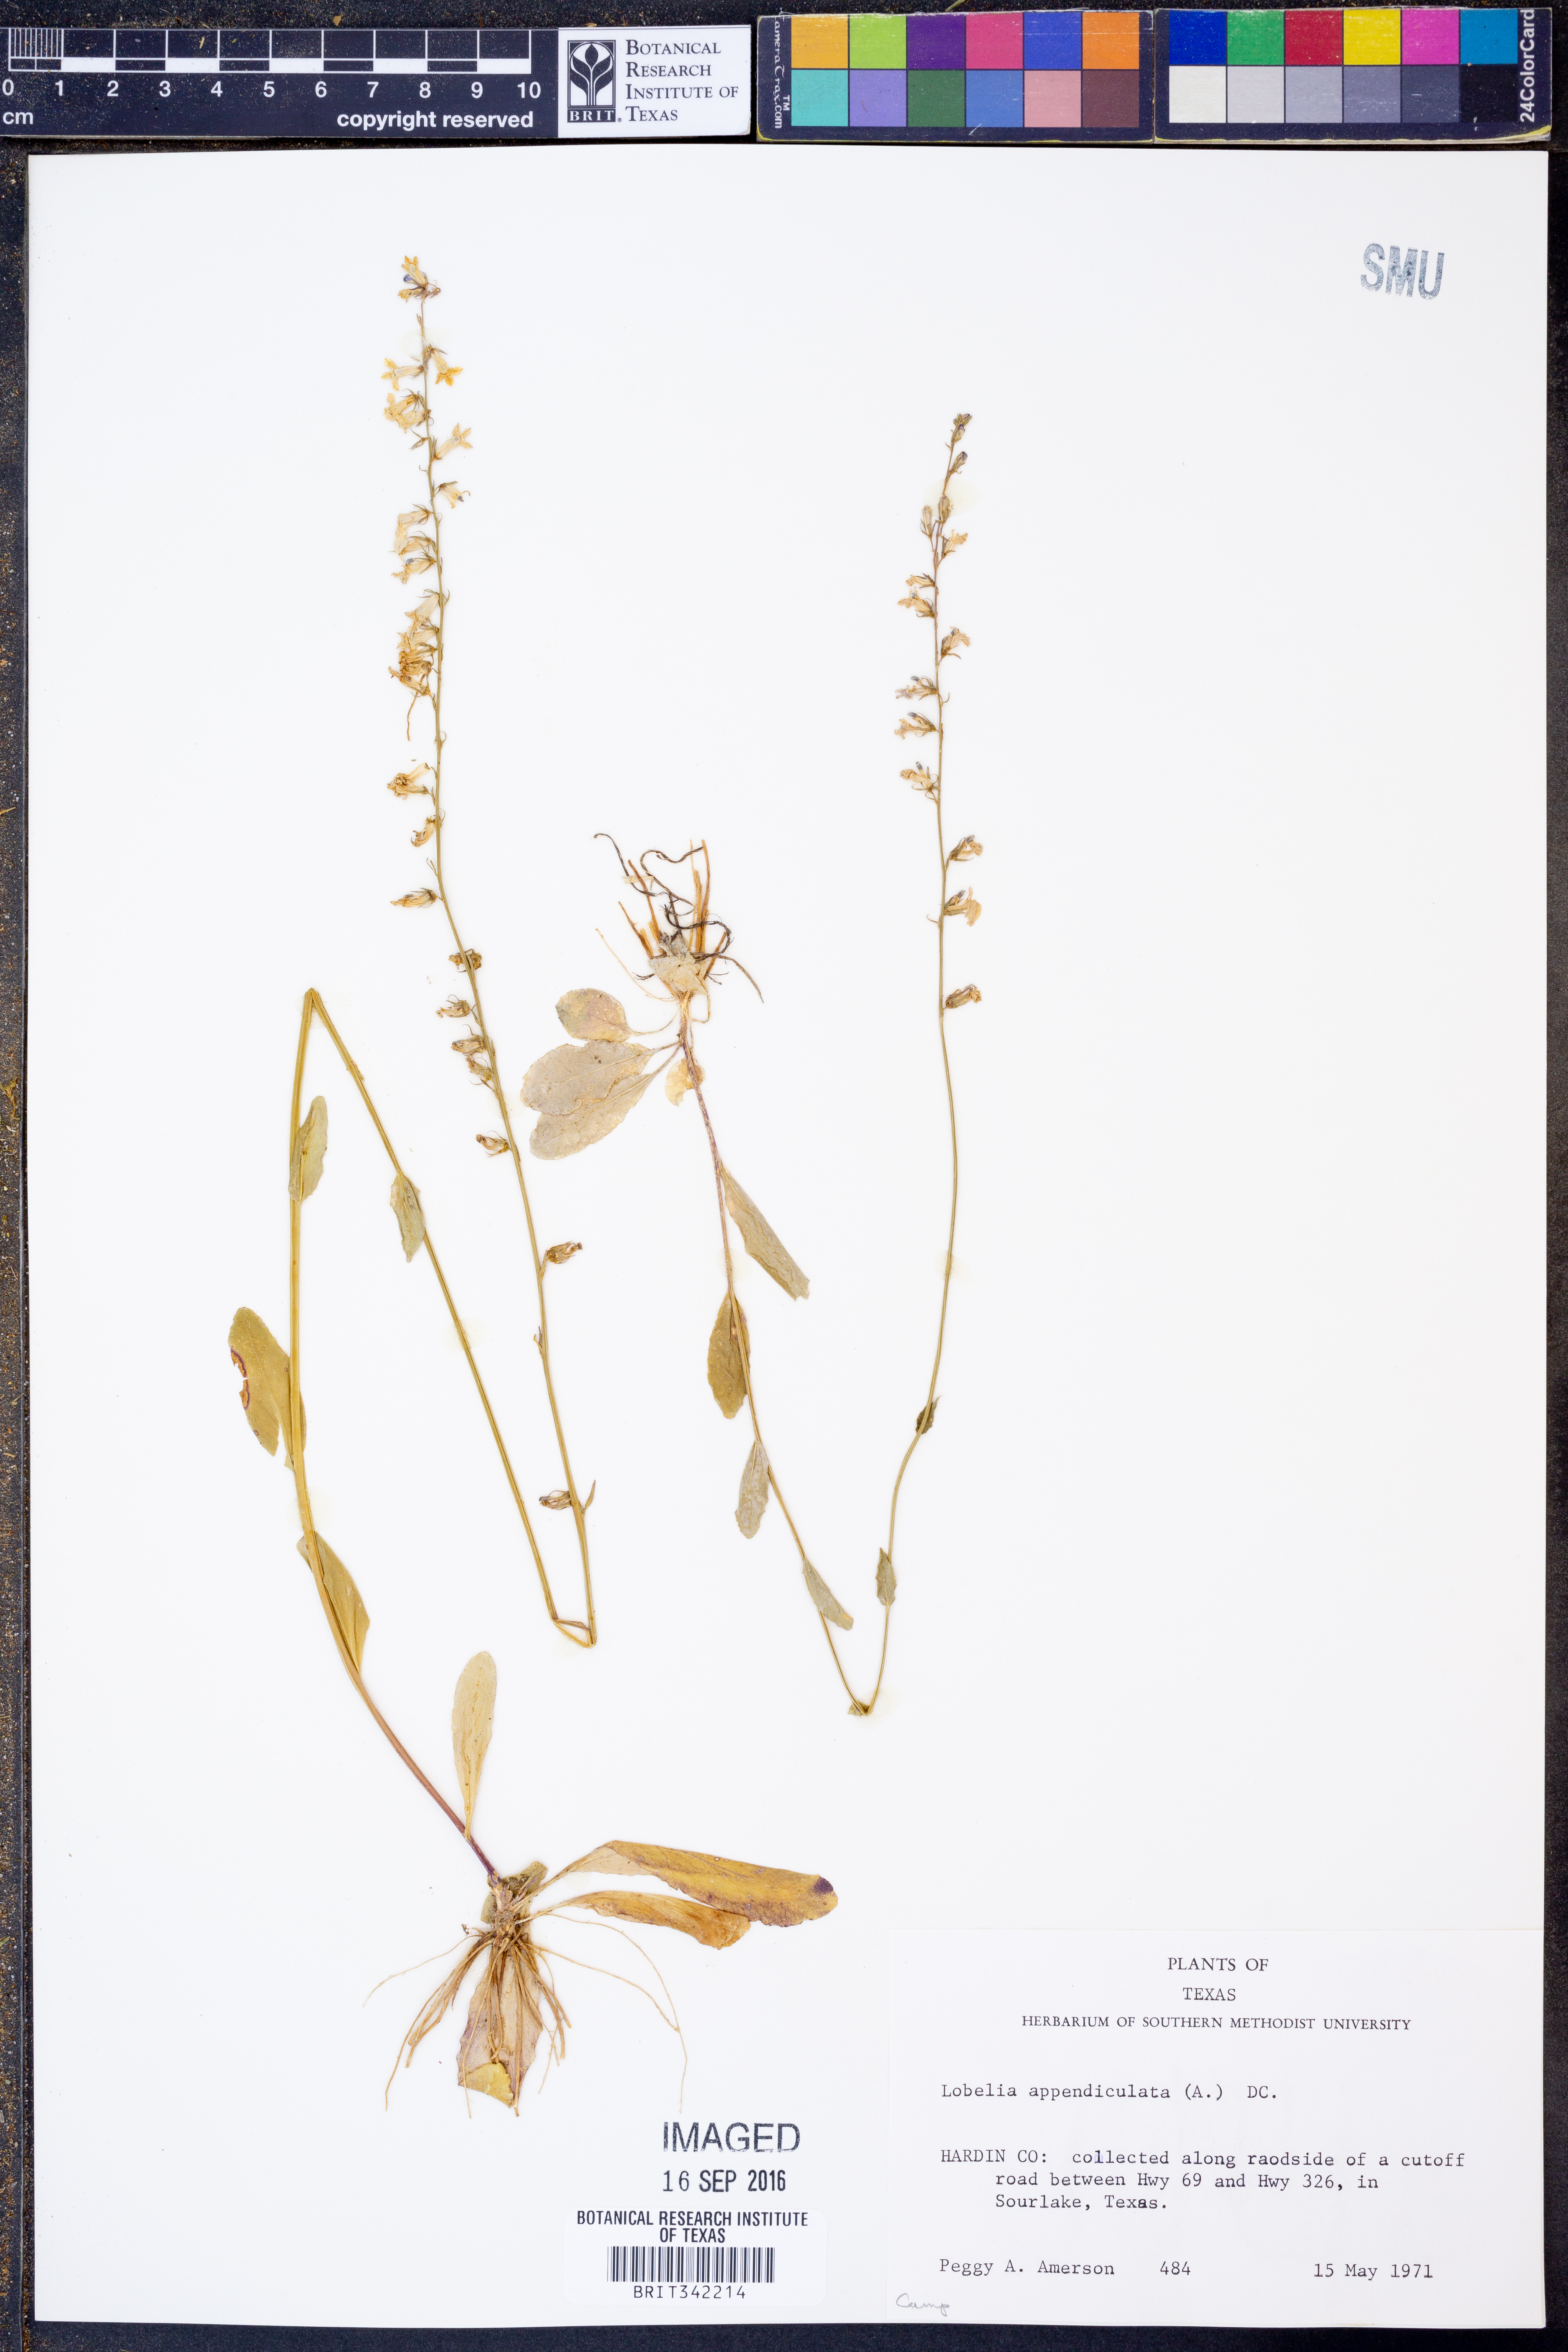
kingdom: Plantae
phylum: Tracheophyta
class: Magnoliopsida
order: Asterales
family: Campanulaceae
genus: Lobelia
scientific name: Lobelia appendiculata
